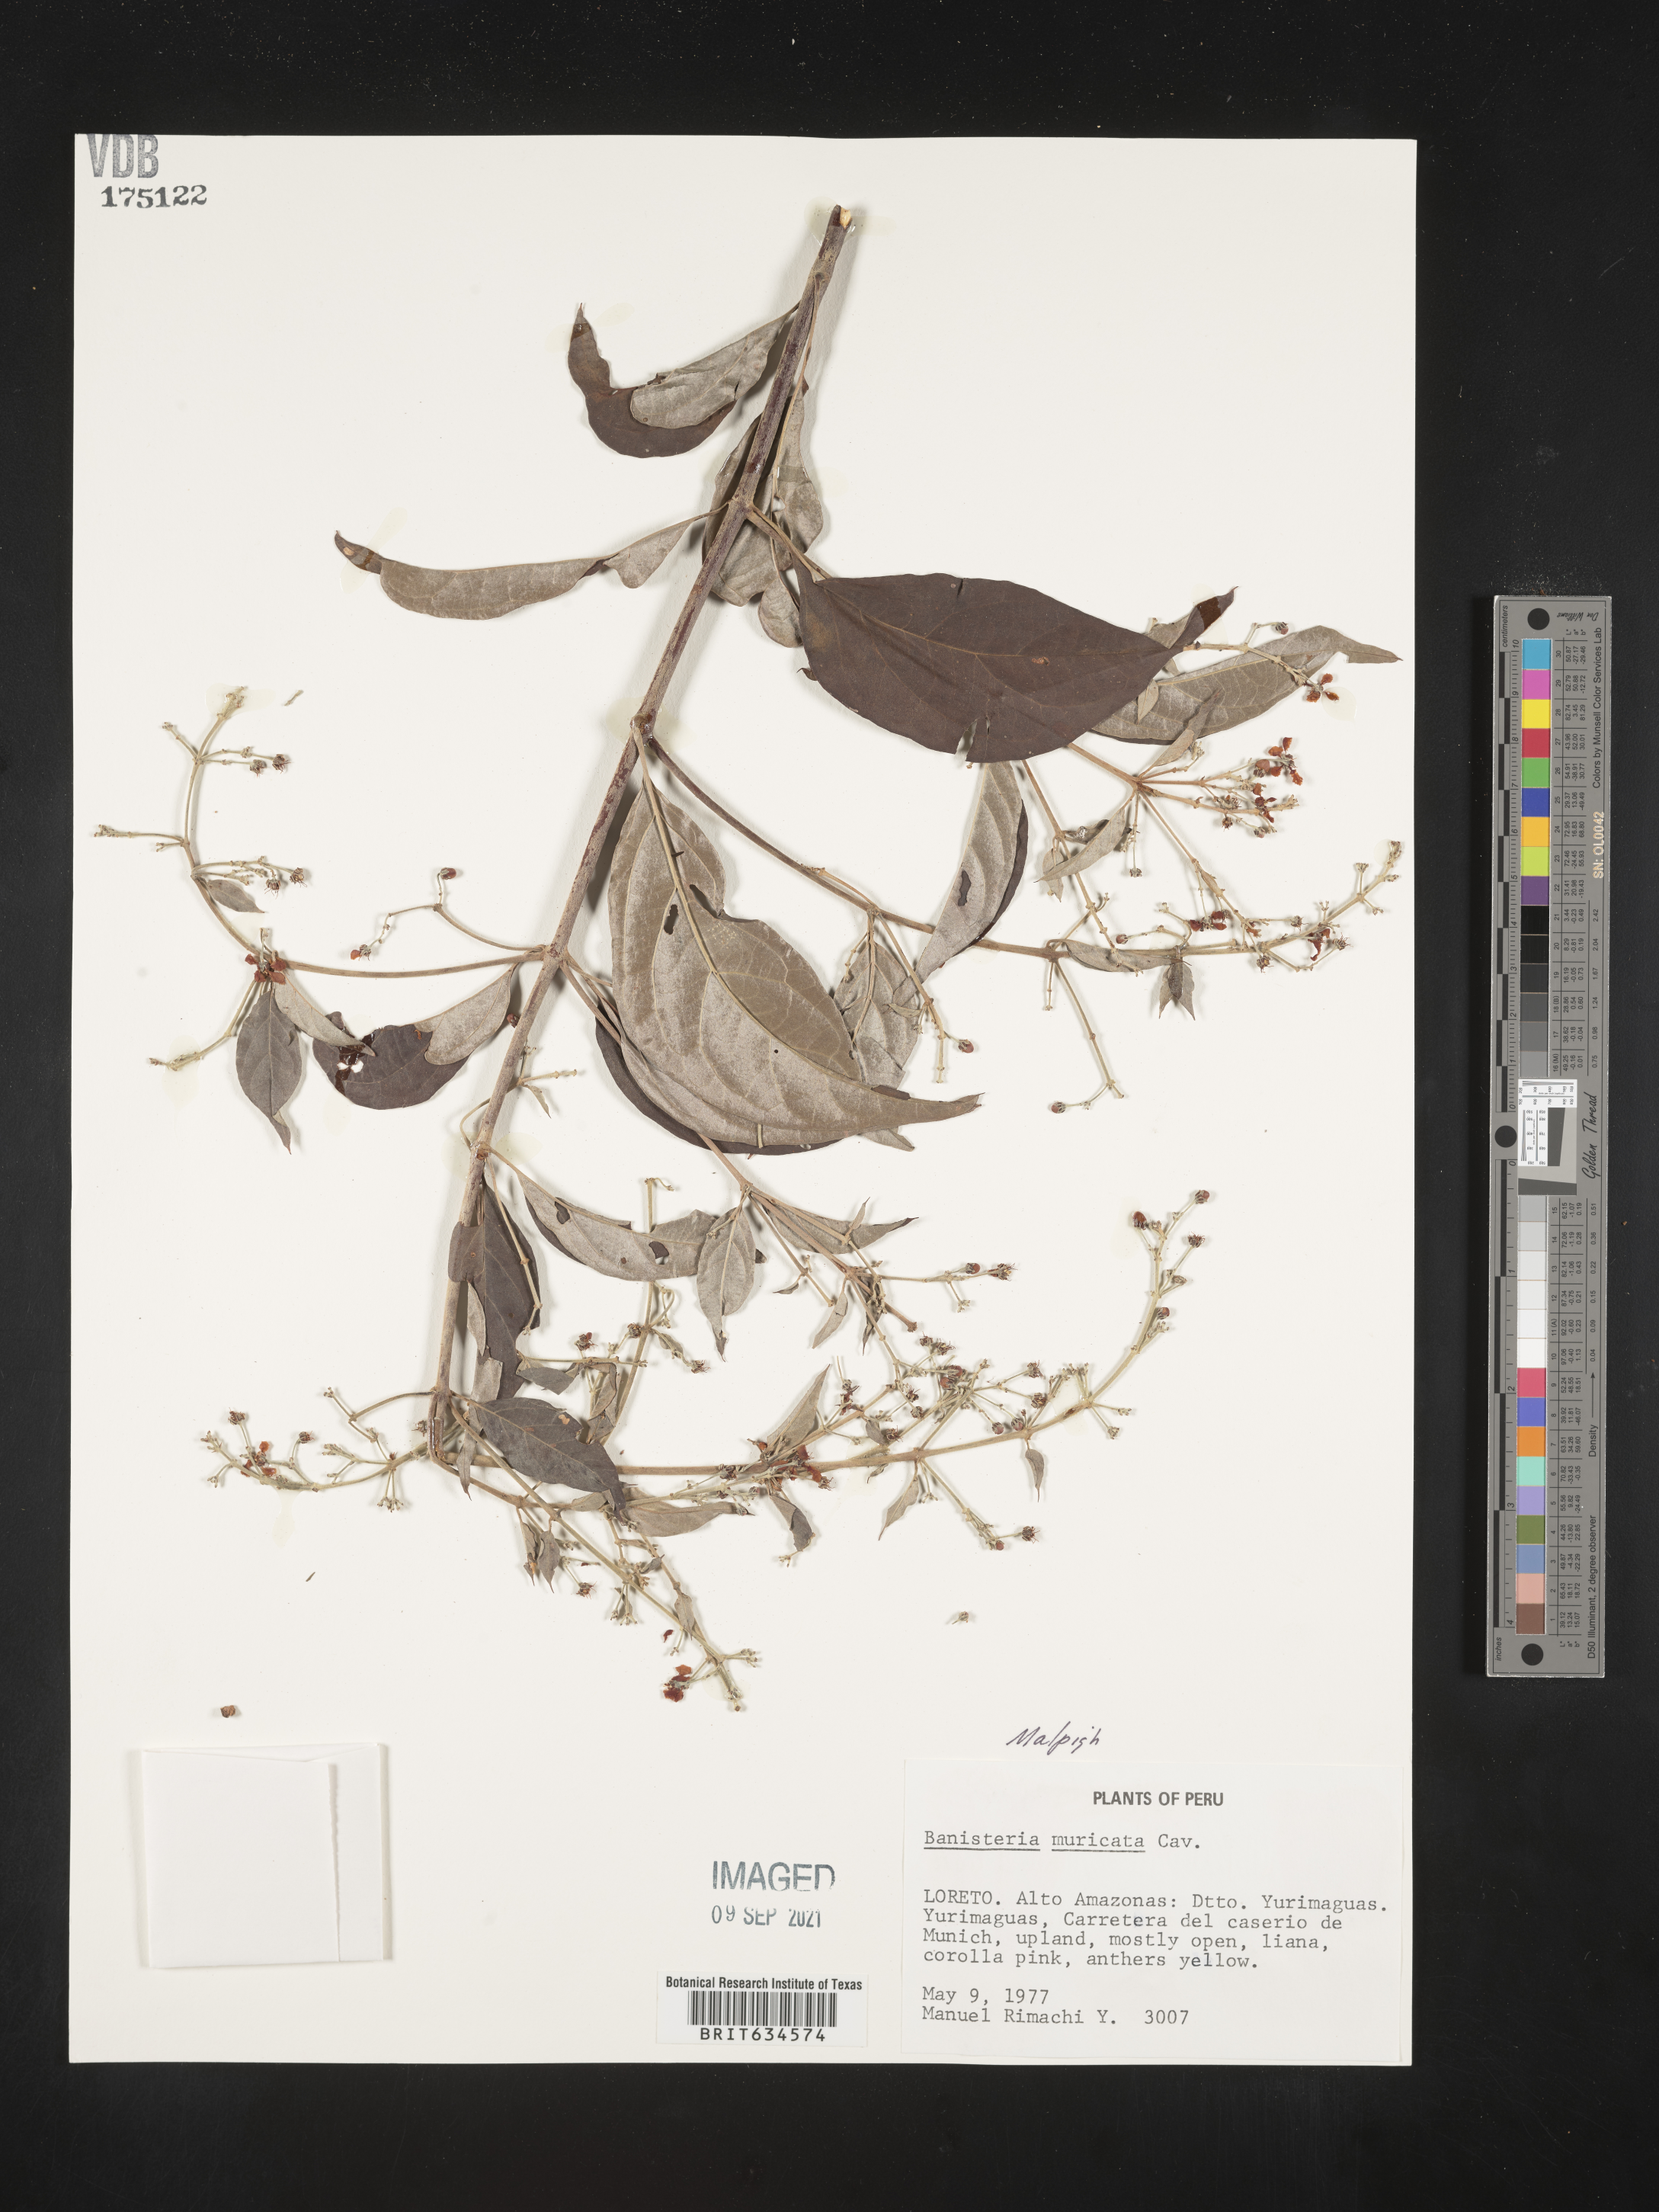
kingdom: Plantae
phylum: Tracheophyta
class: Magnoliopsida
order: Malpighiales
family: Malpighiaceae
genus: Heteropterys
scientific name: Heteropterys
